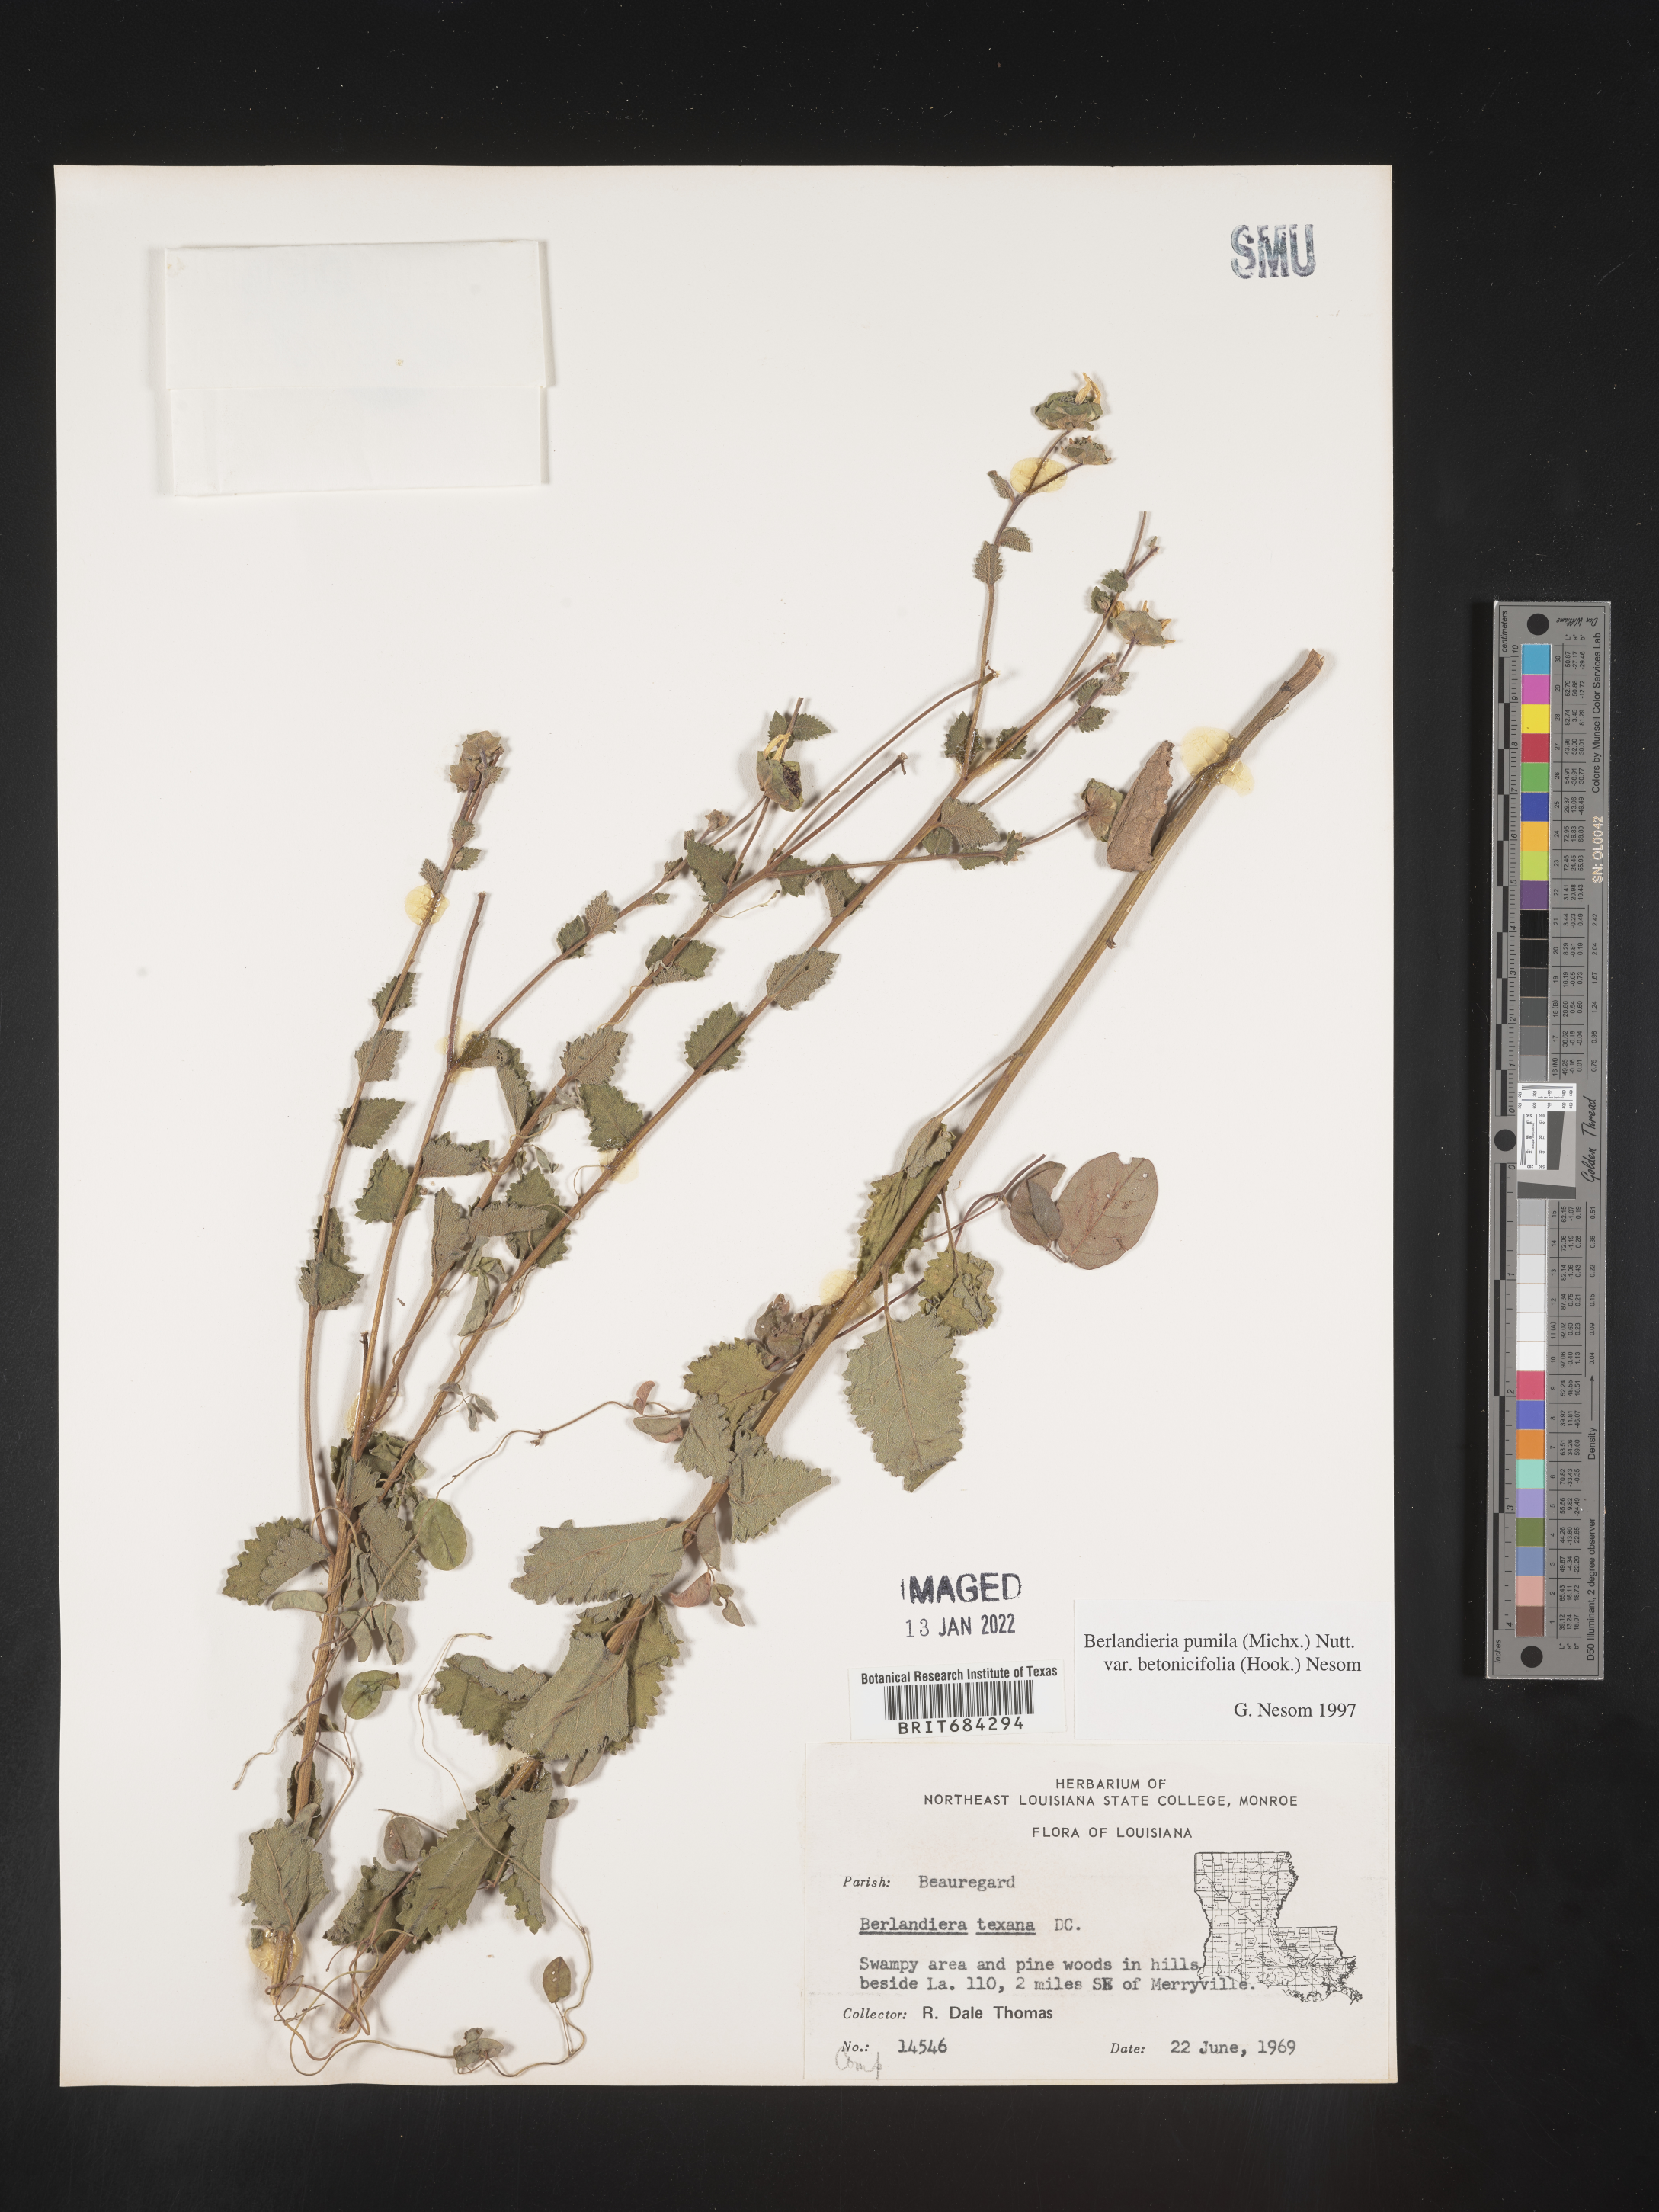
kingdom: Plantae
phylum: Tracheophyta
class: Magnoliopsida
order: Asterales
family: Asteraceae
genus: Berlandiera
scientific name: Berlandiera pumila
